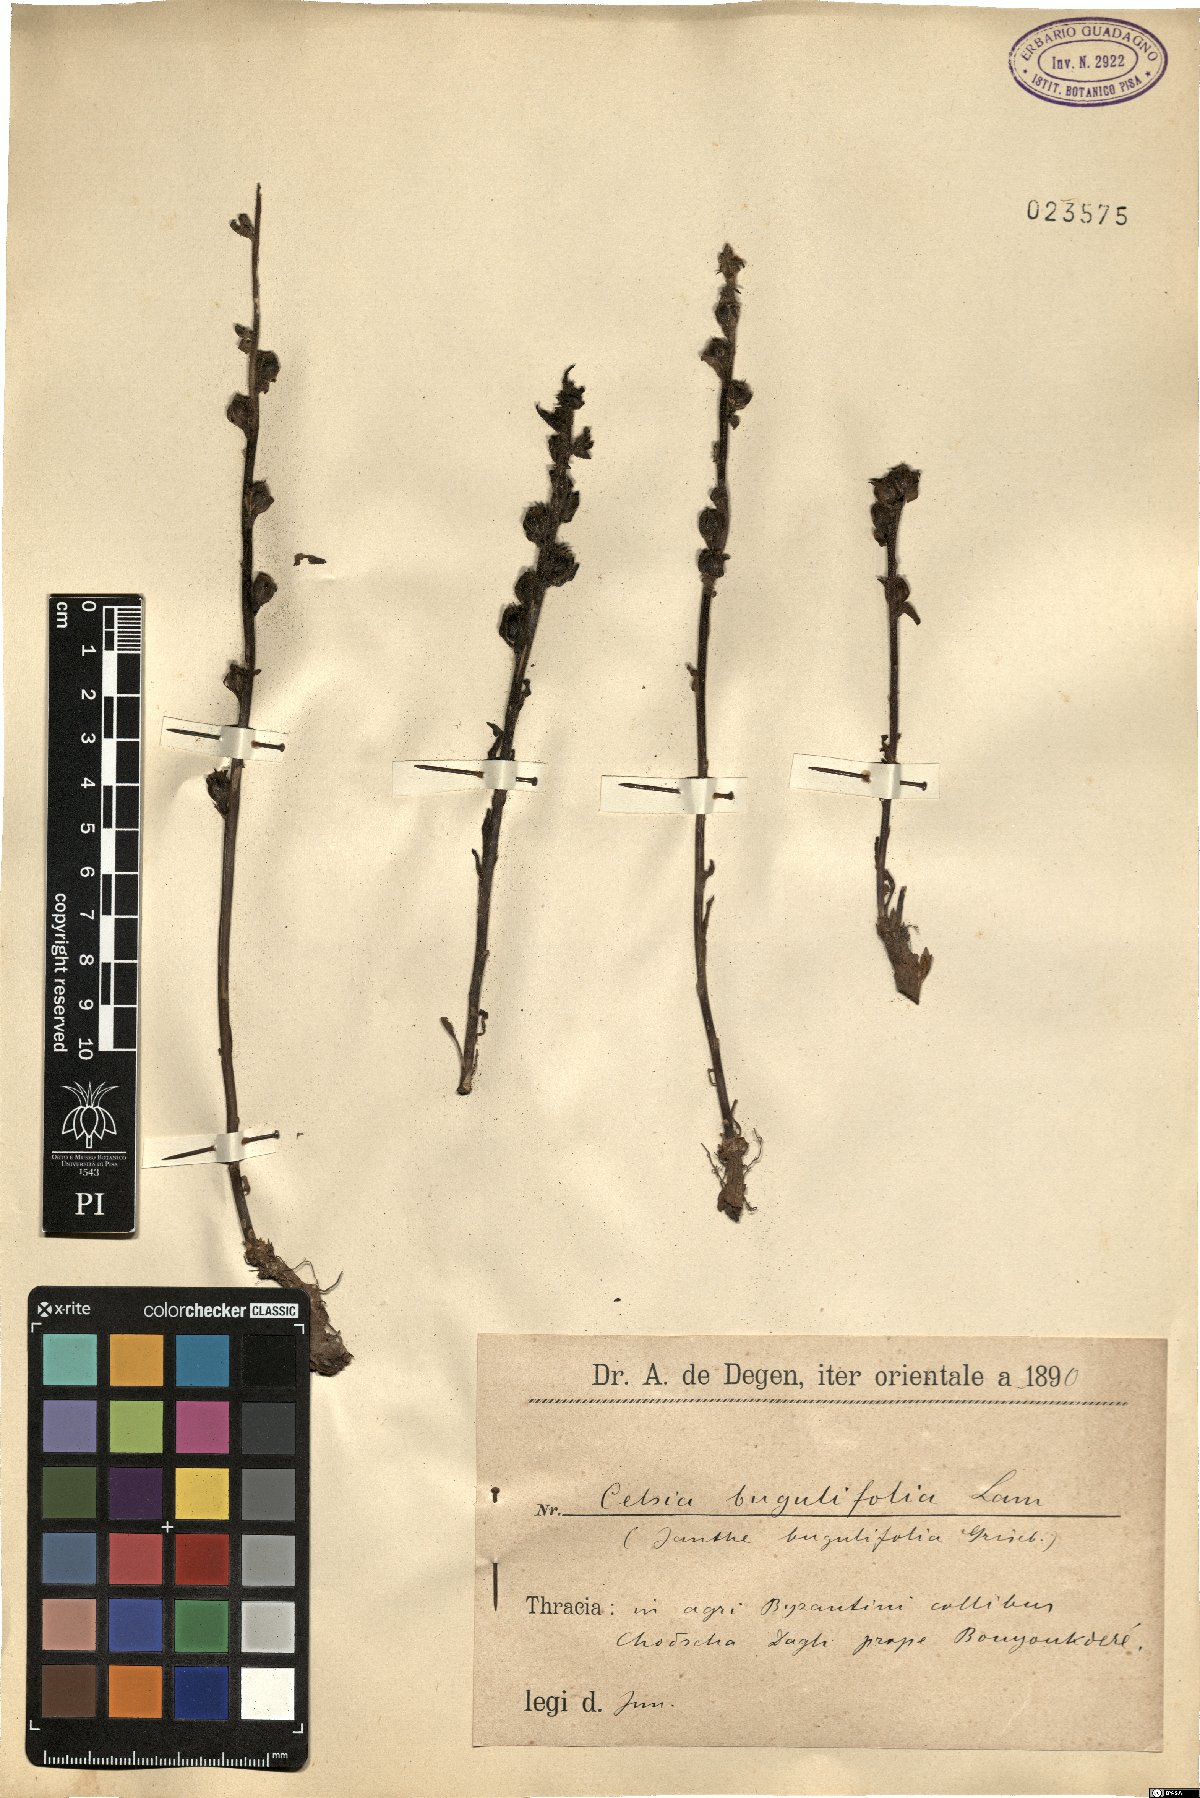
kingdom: Plantae
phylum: Tracheophyta
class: Magnoliopsida
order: Lamiales
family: Scrophulariaceae
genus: Verbascum
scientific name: Verbascum bugulifolium
